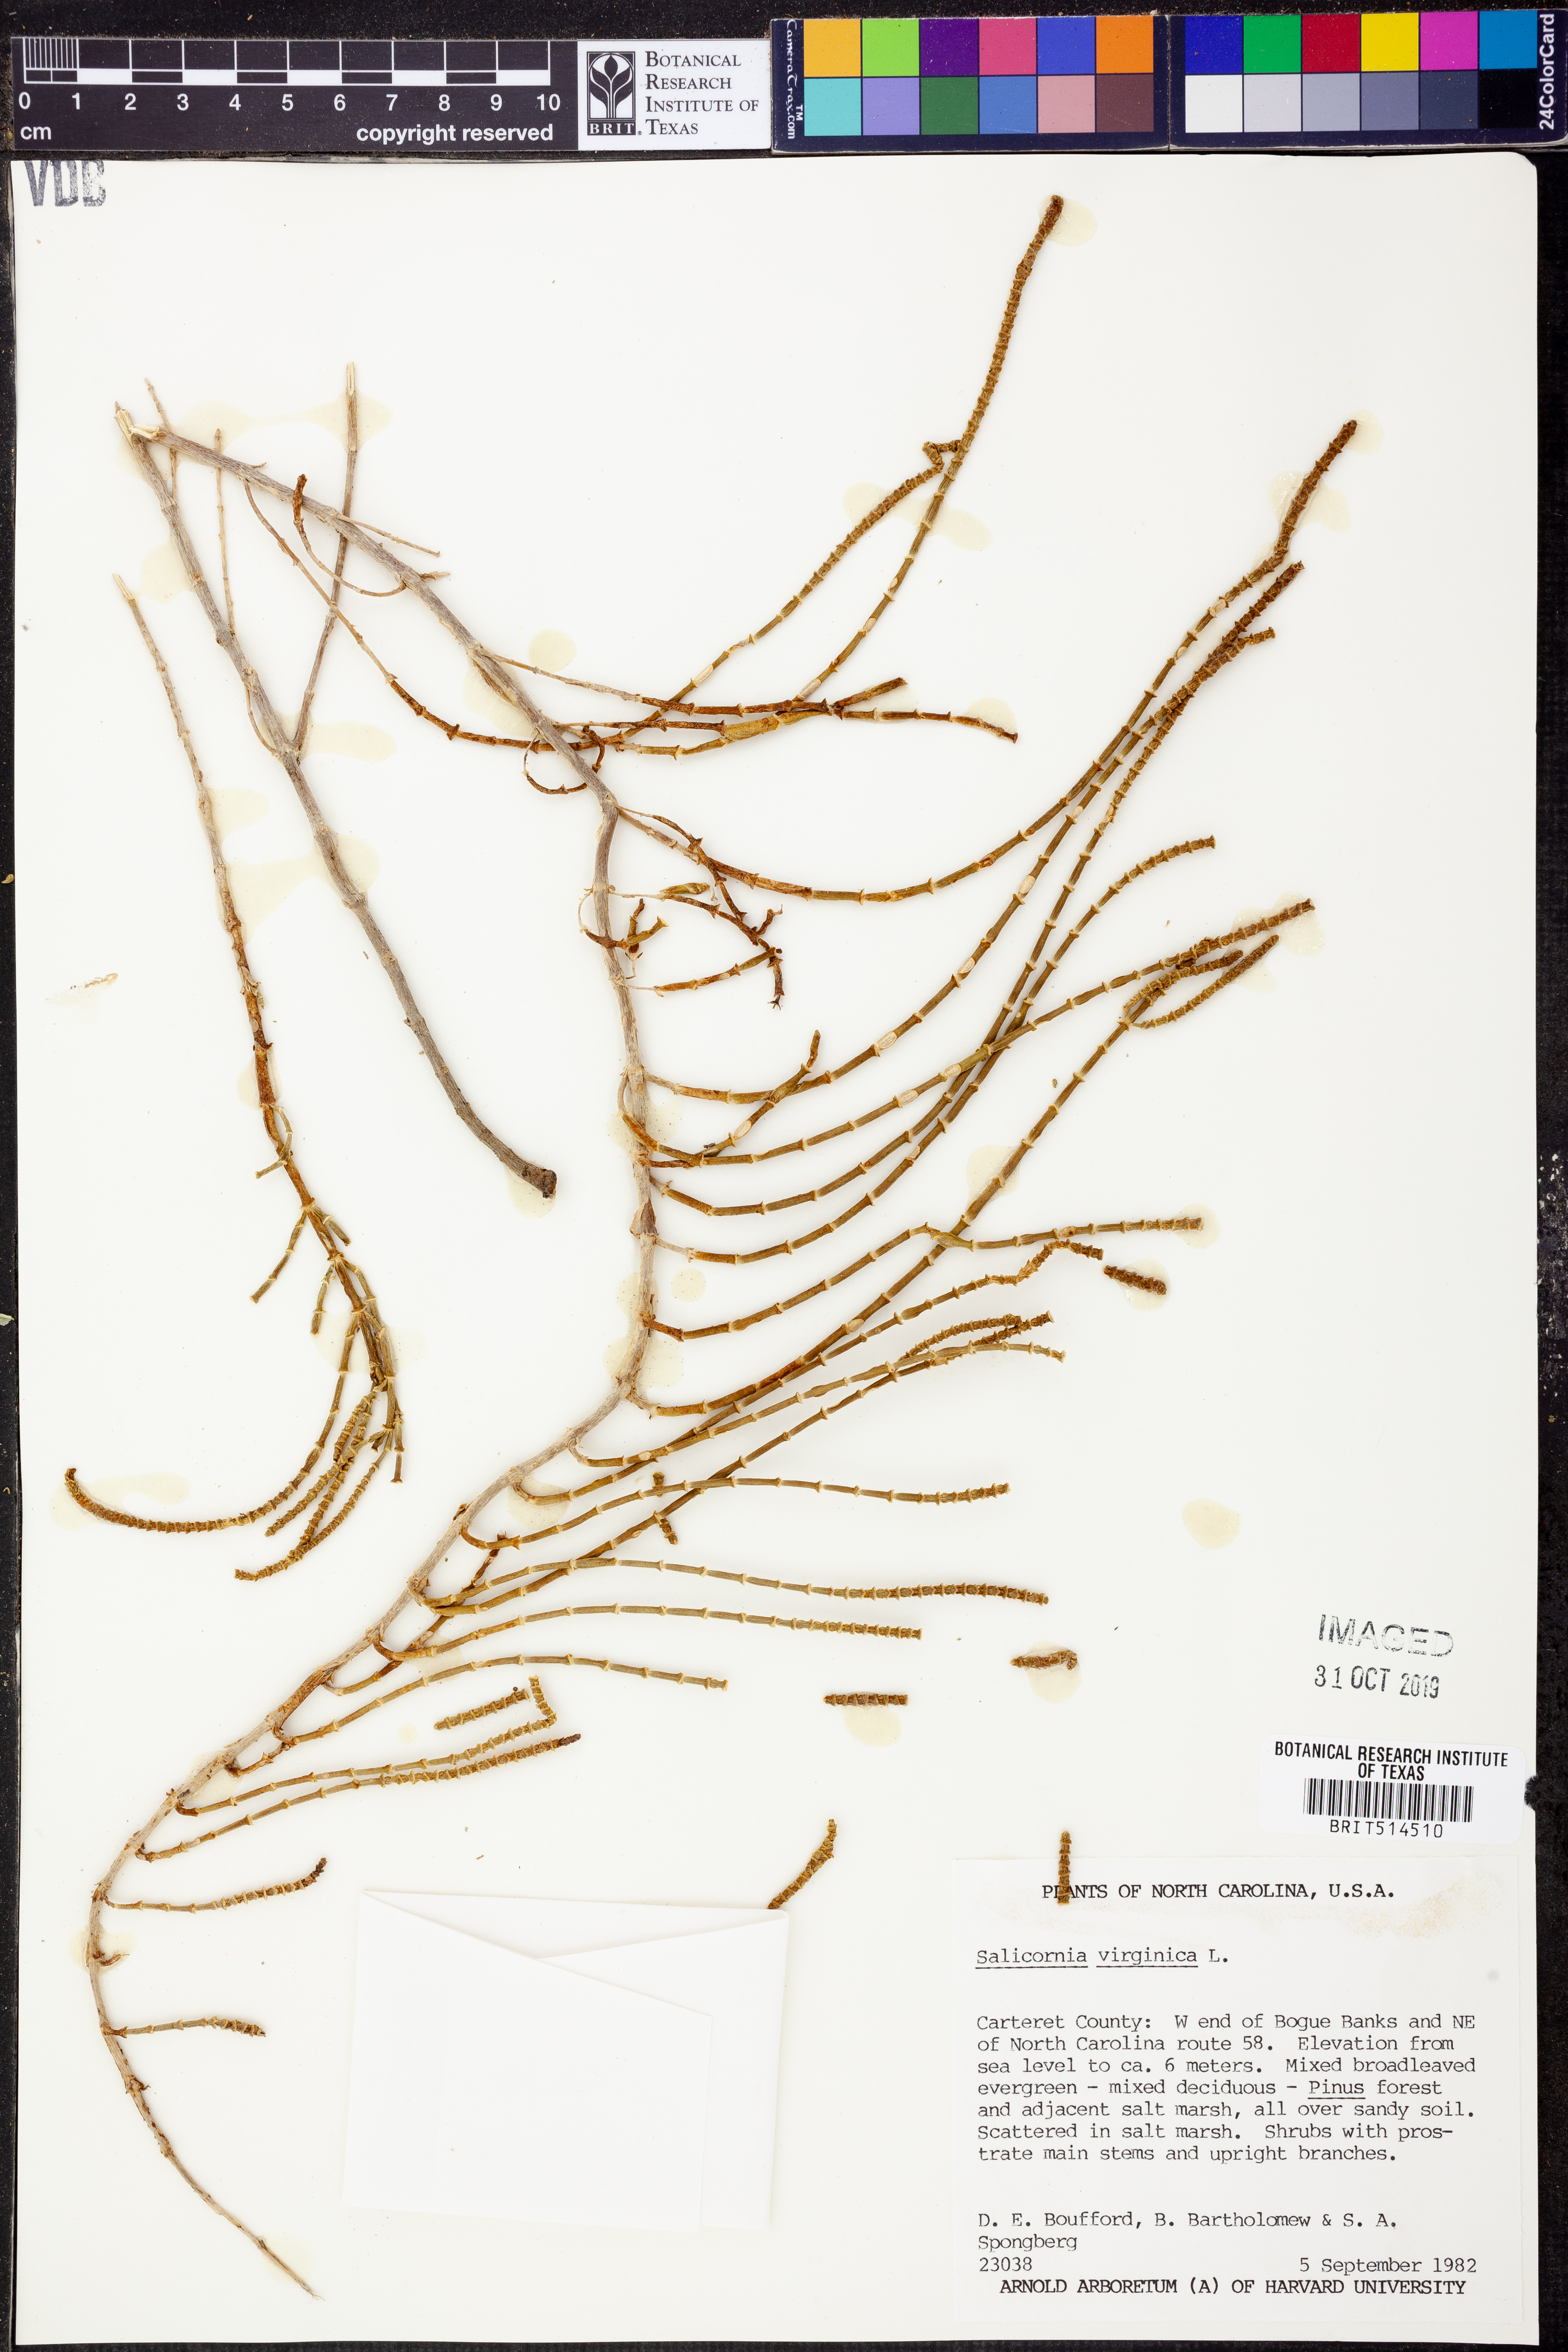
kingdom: Plantae
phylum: Tracheophyta
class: Magnoliopsida
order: Caryophyllales
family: Amaranthaceae
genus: Salicornia
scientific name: Salicornia virginica
